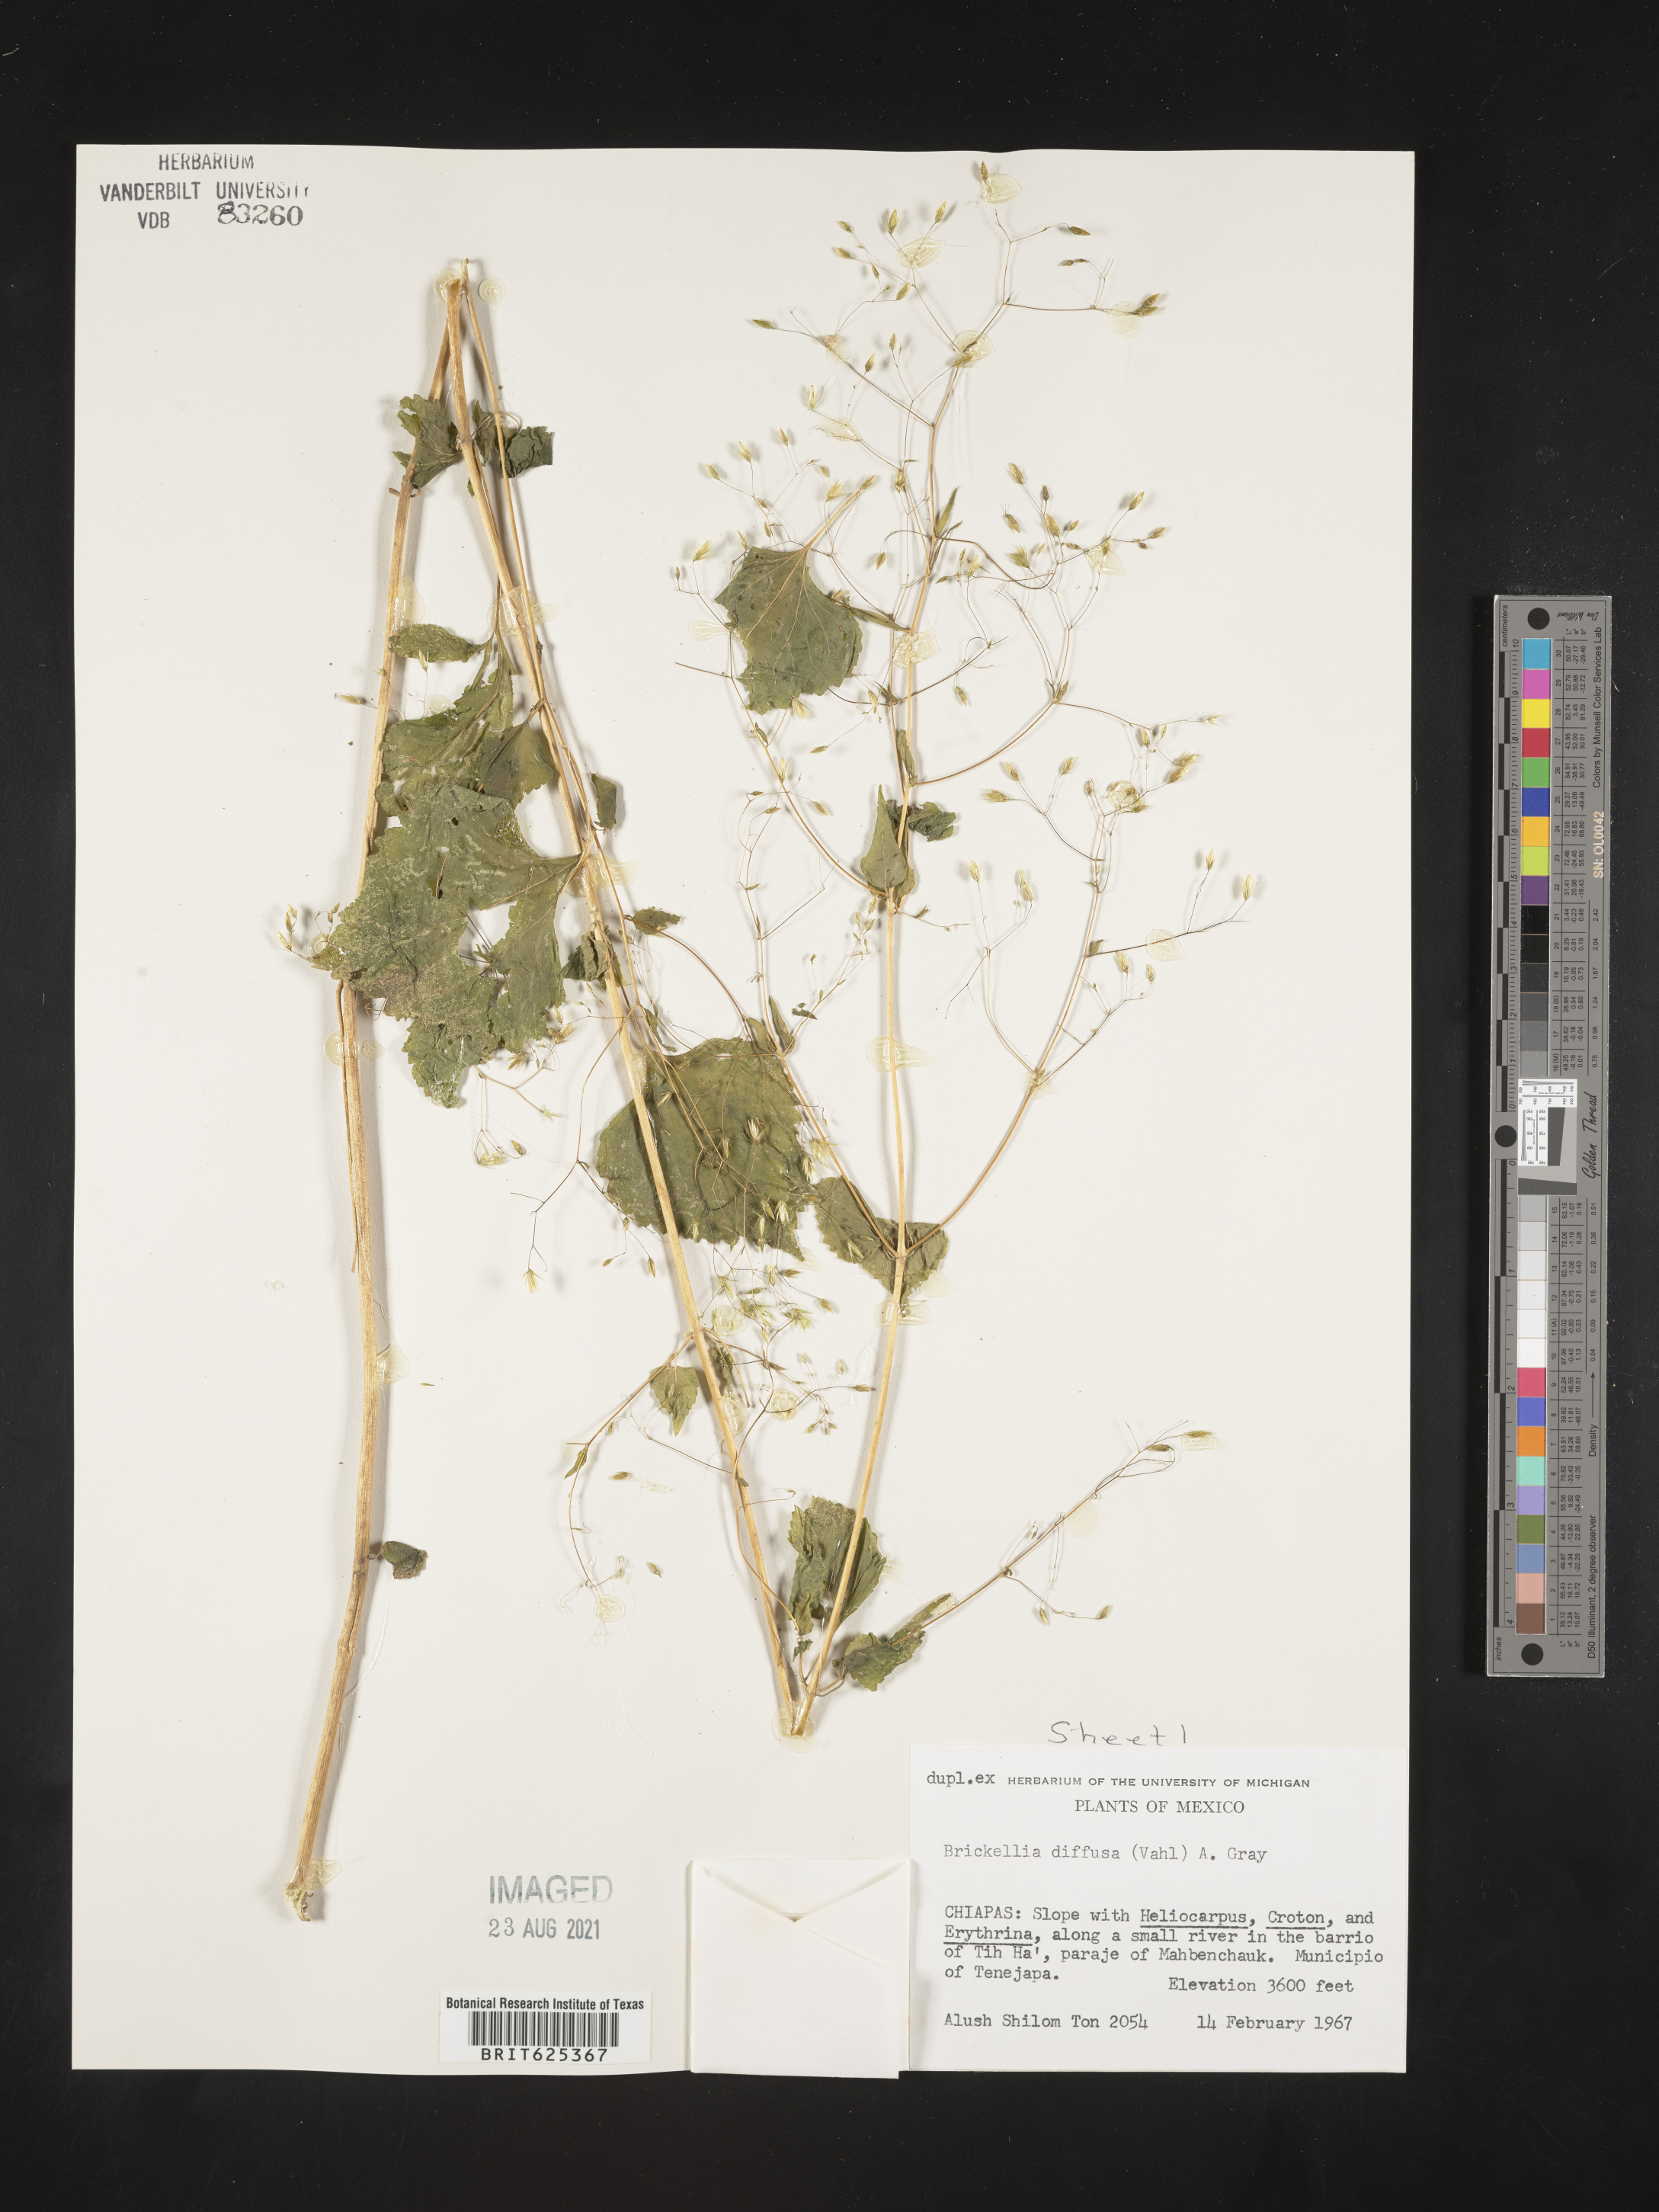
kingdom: Plantae
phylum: Tracheophyta
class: Magnoliopsida
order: Asterales
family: Asteraceae
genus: Brickellia
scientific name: Brickellia
